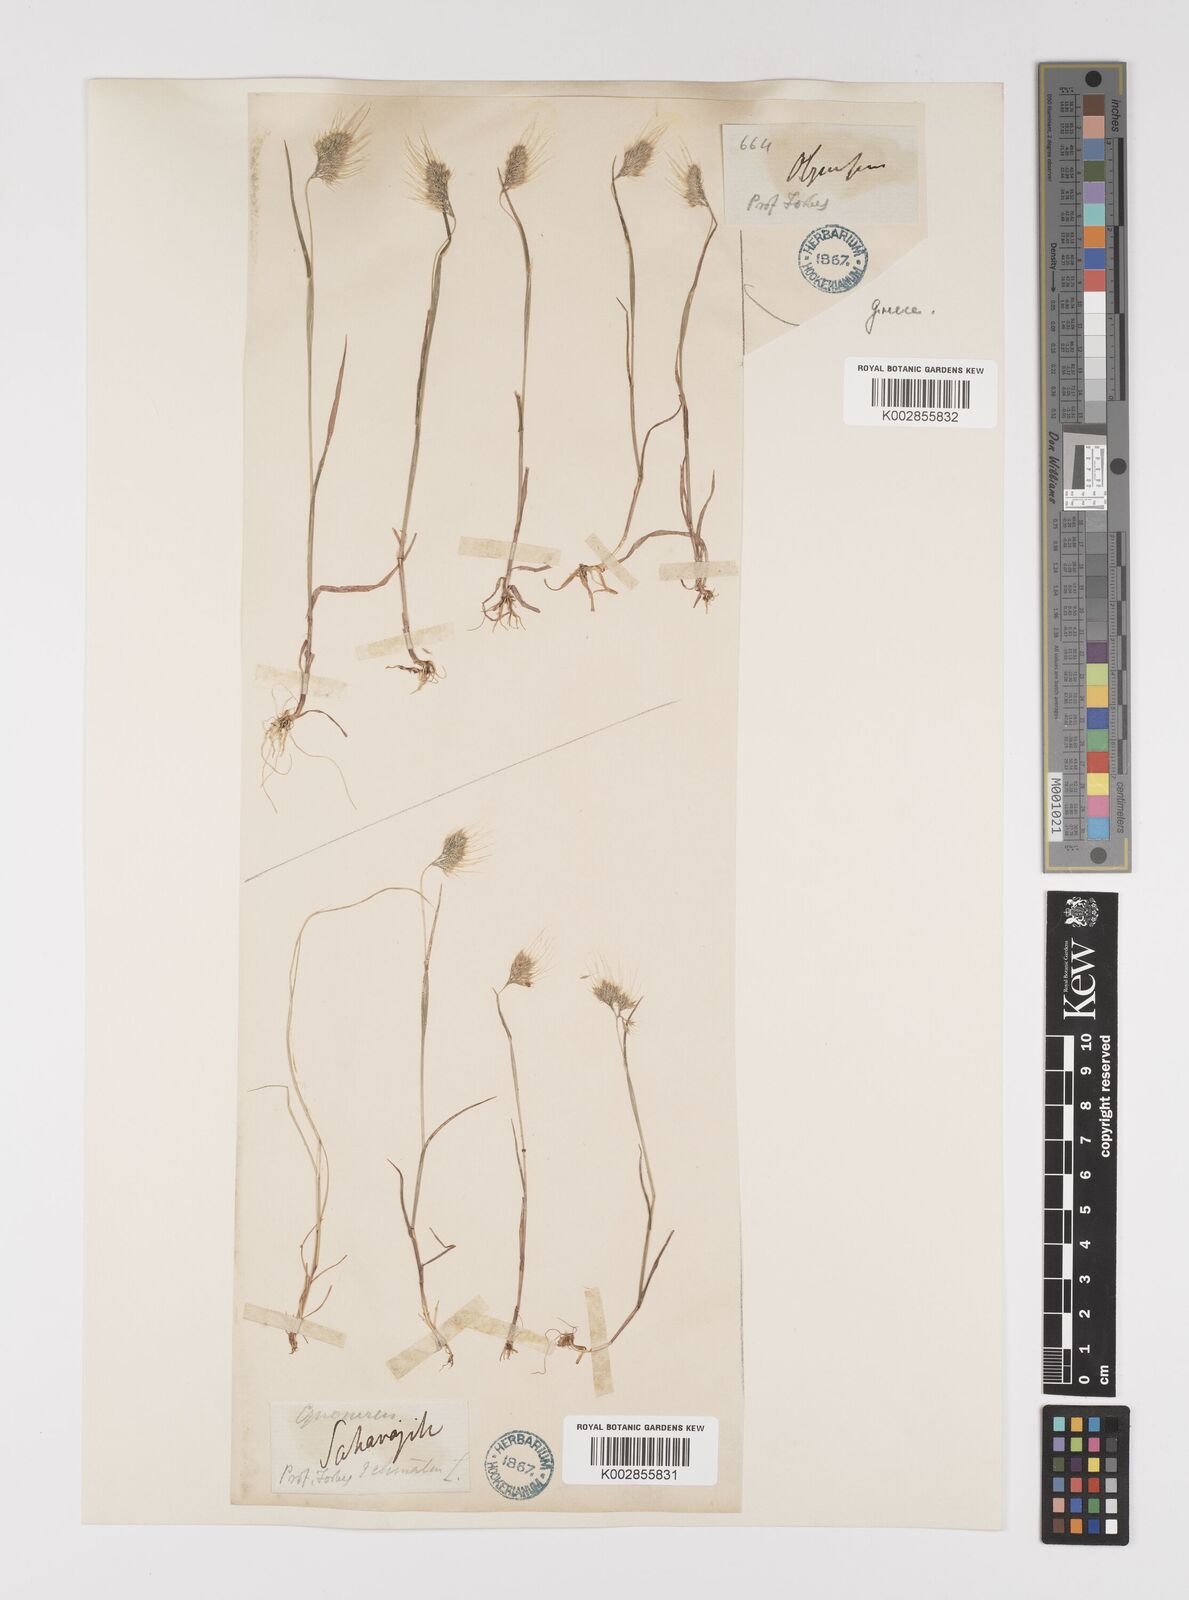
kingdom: Plantae
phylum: Tracheophyta
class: Liliopsida
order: Poales
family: Poaceae
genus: Cynosurus
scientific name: Cynosurus elegans
